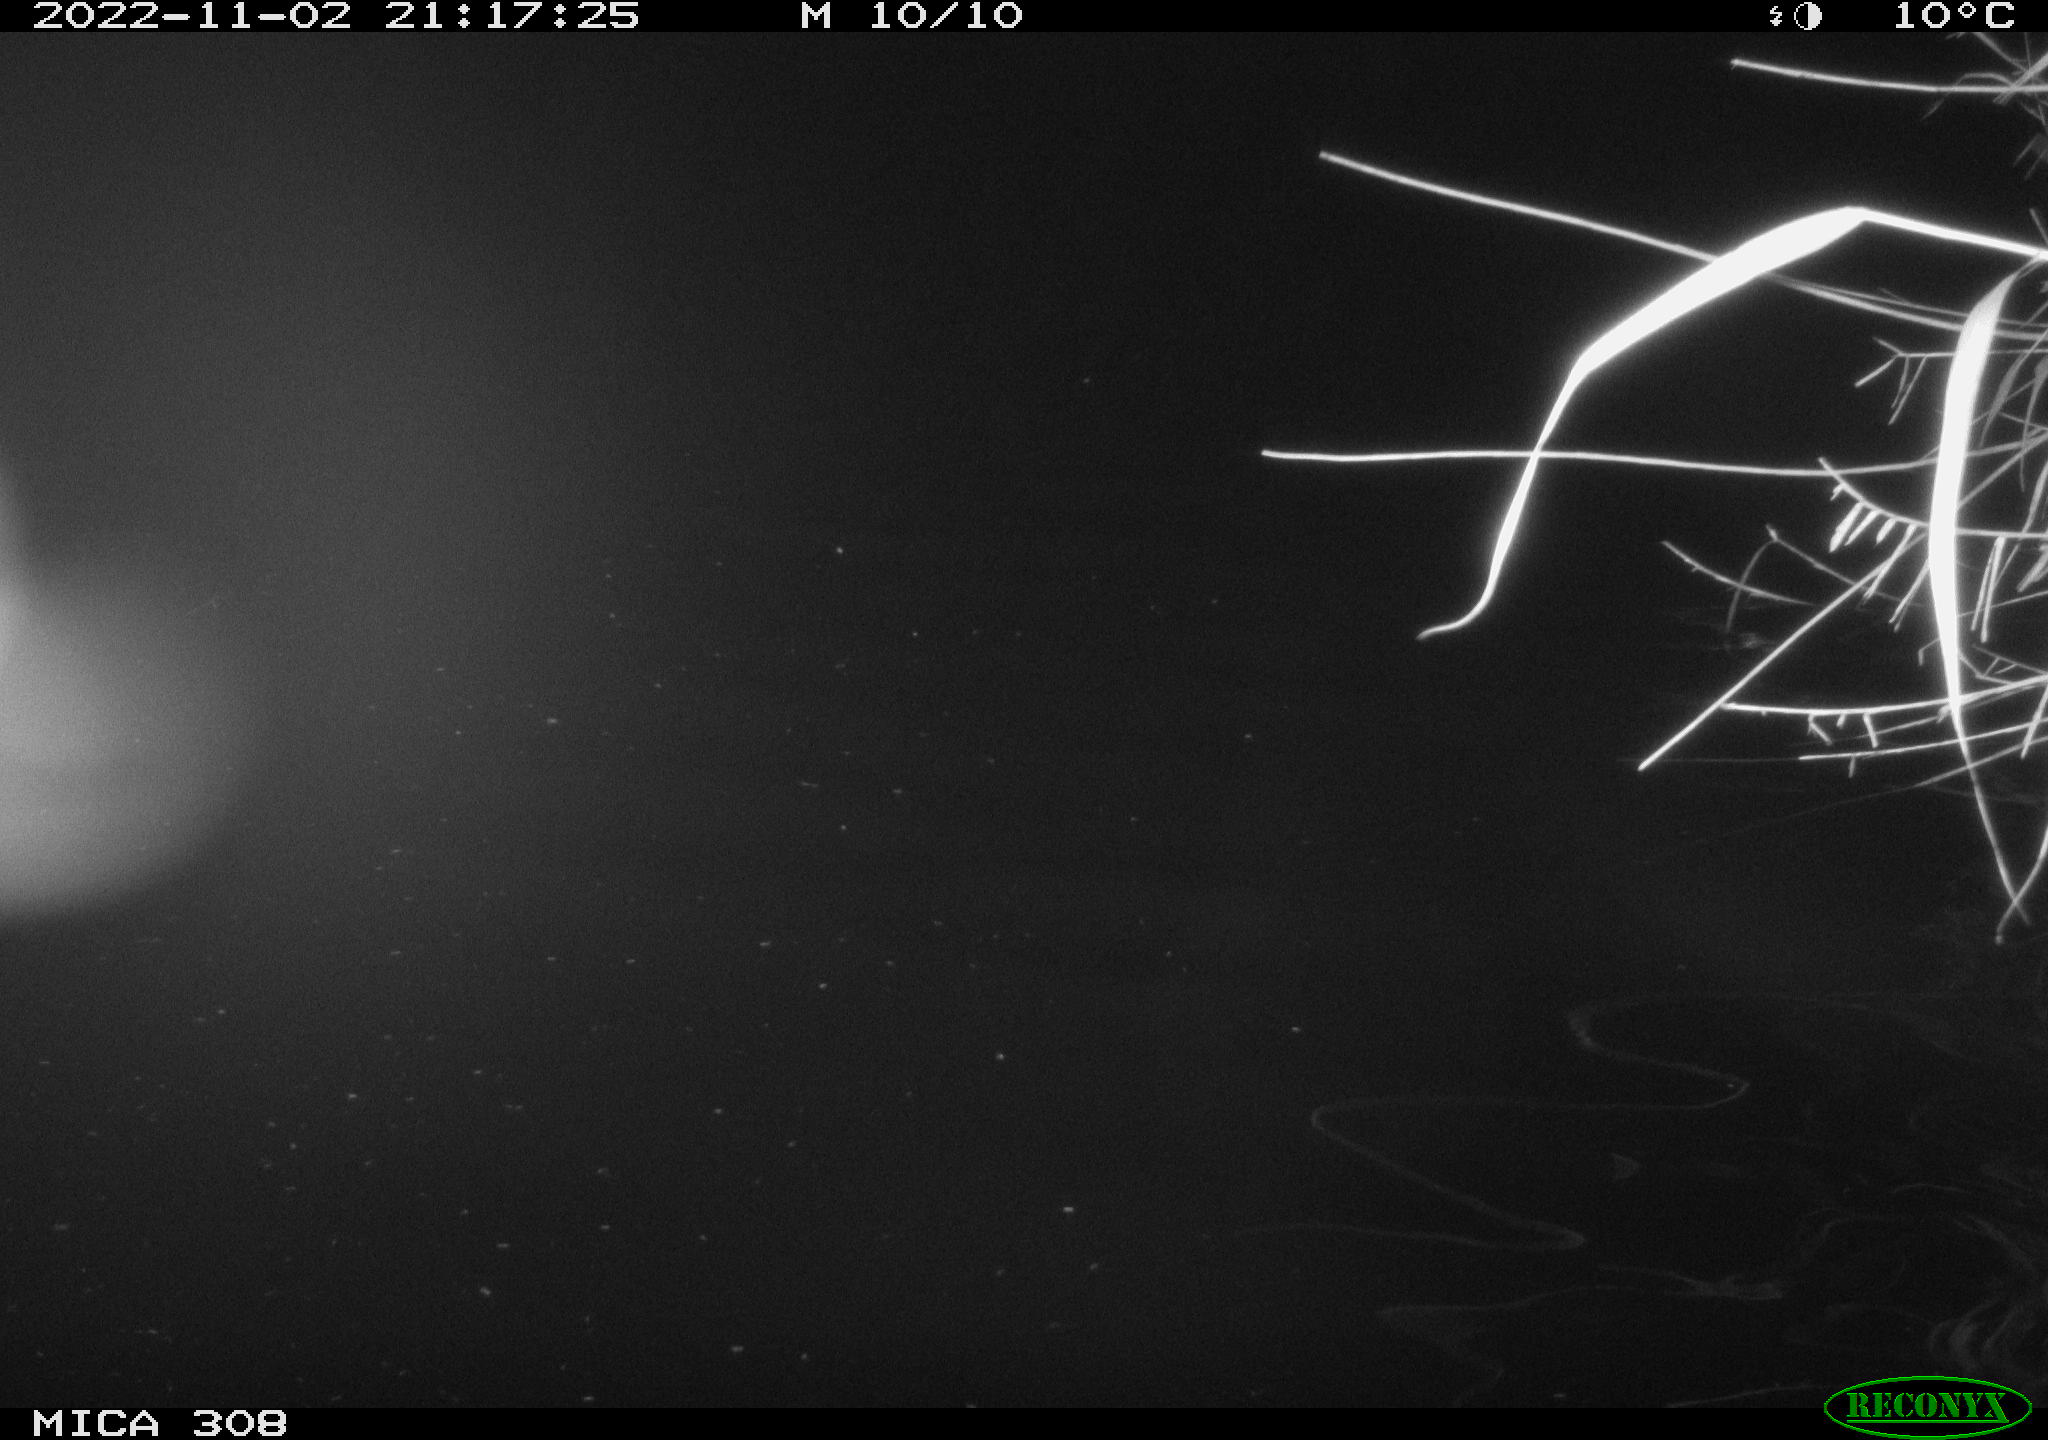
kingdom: Animalia
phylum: Chordata
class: Mammalia
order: Rodentia
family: Muridae
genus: Rattus
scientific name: Rattus norvegicus
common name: Brown rat
